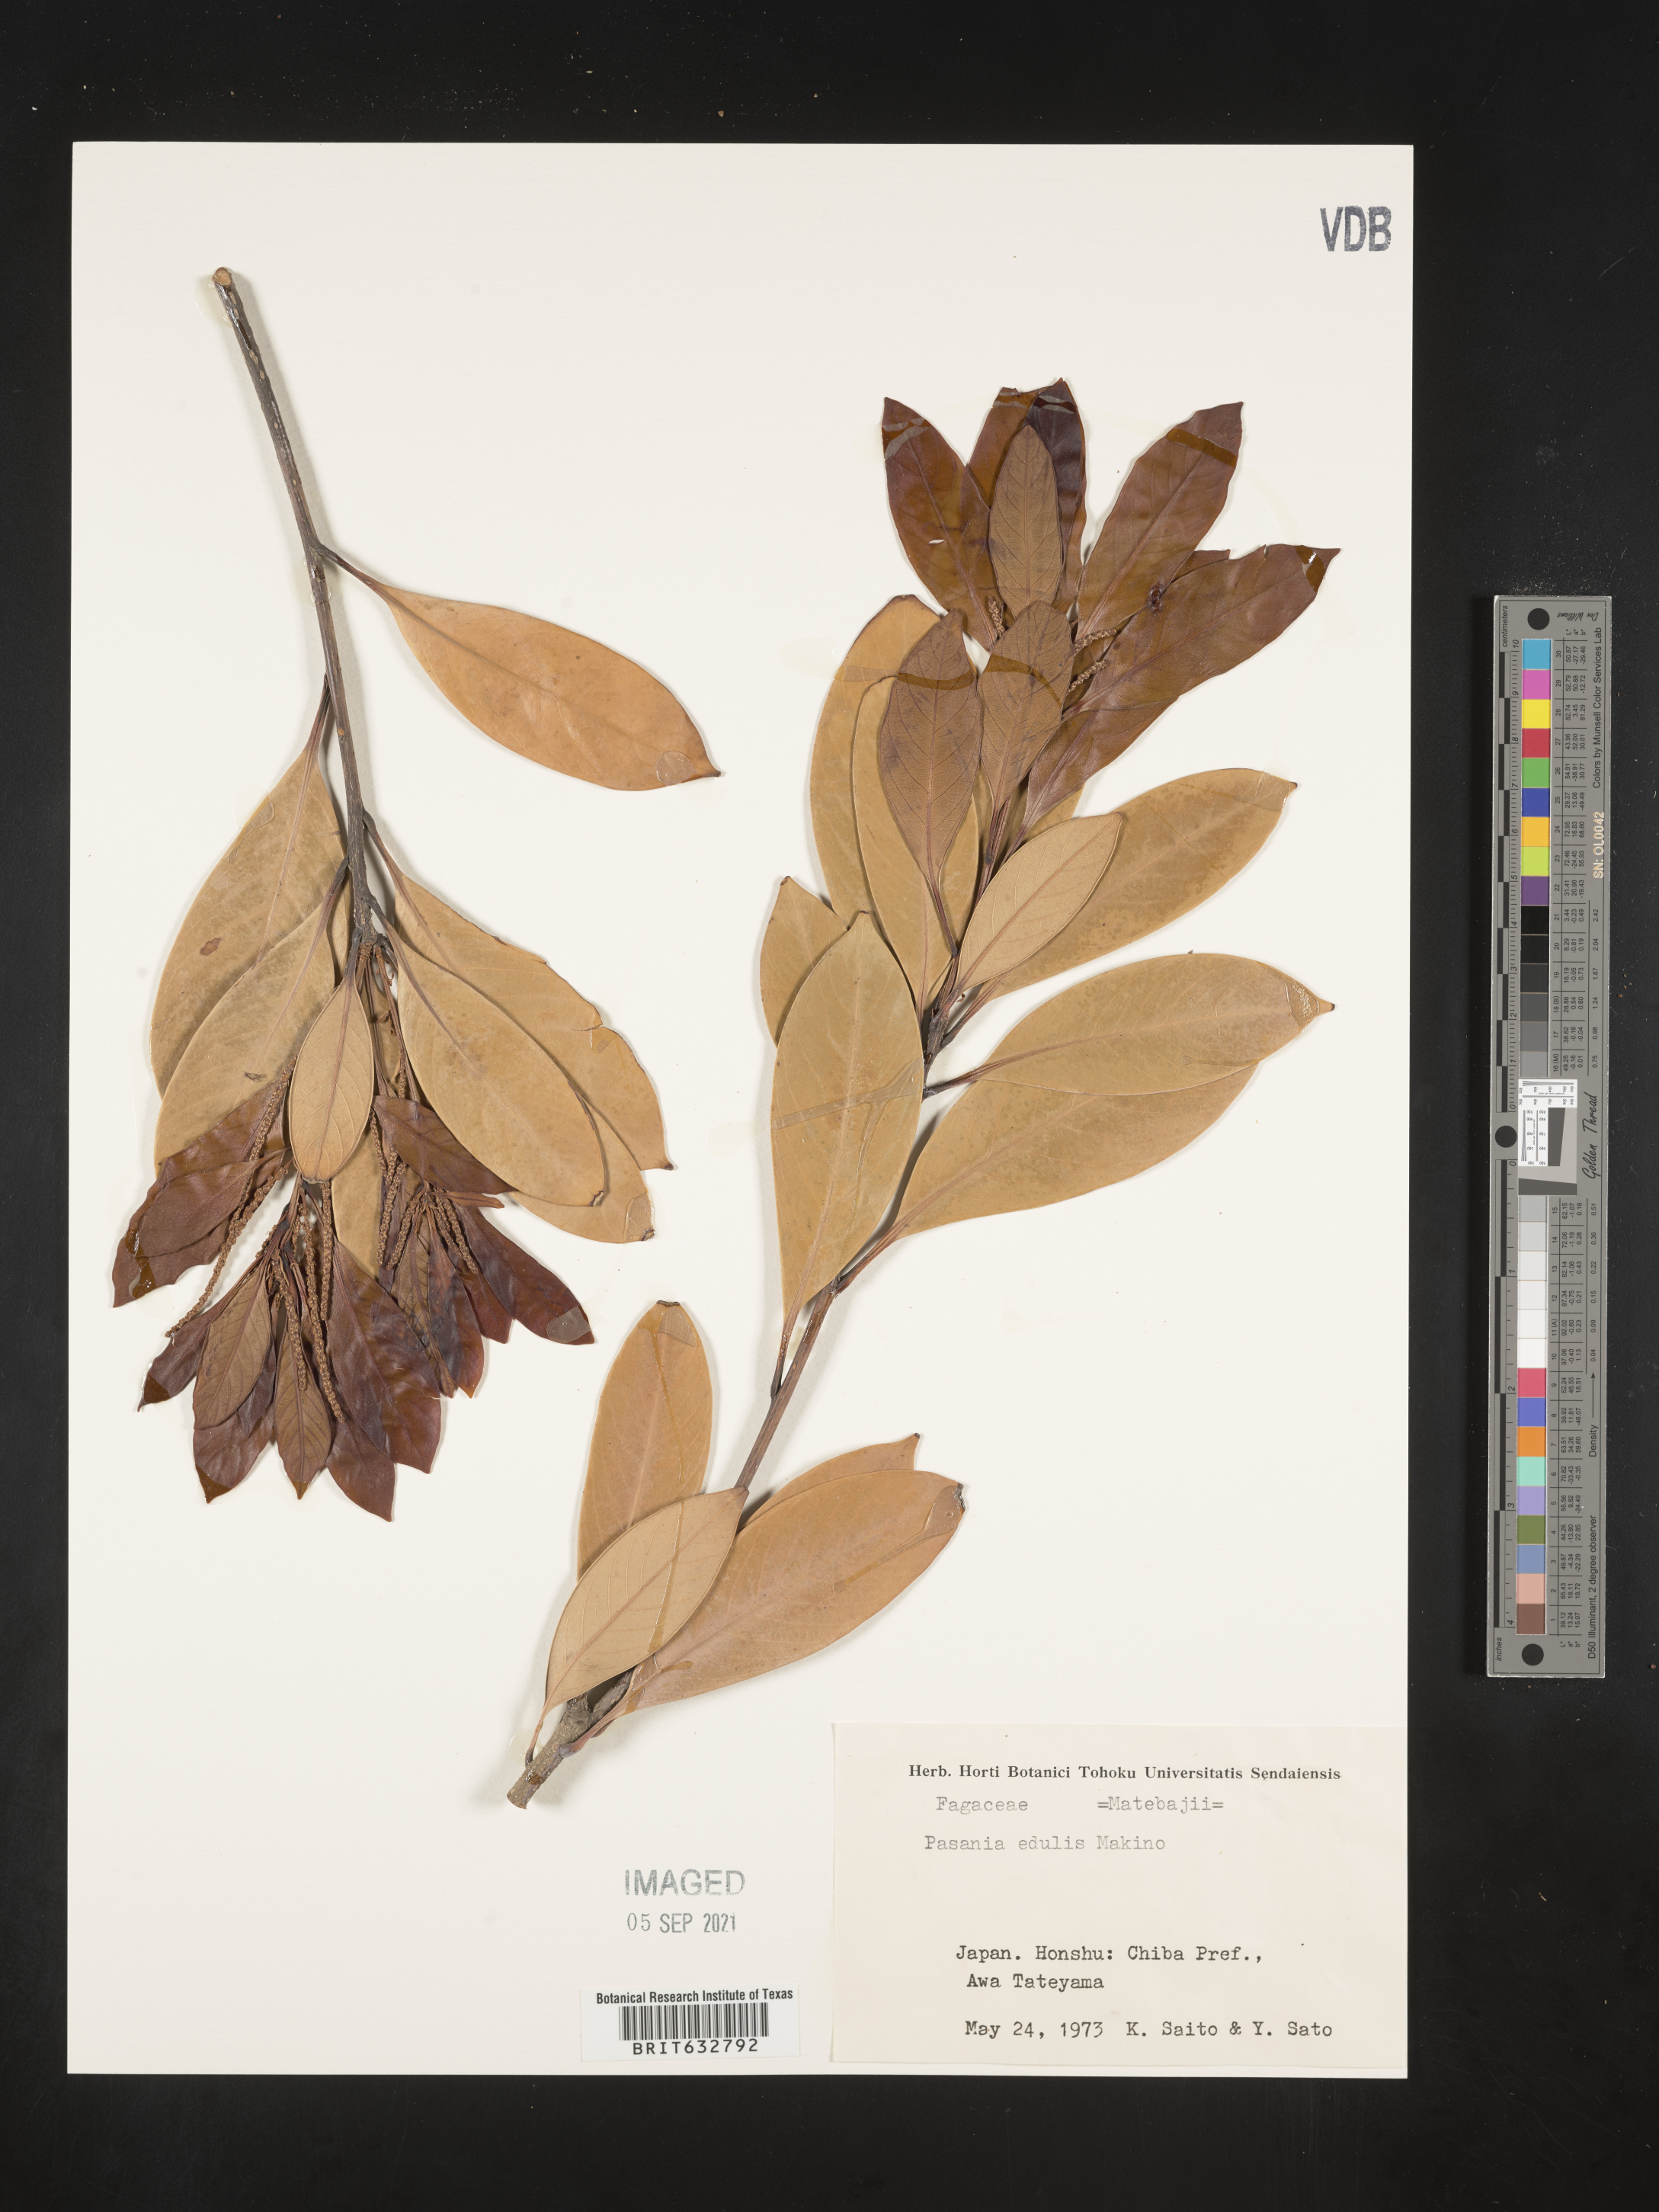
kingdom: Plantae
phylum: Tracheophyta
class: Magnoliopsida
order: Fagales
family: Fagaceae
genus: Pasania
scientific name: Pasania
